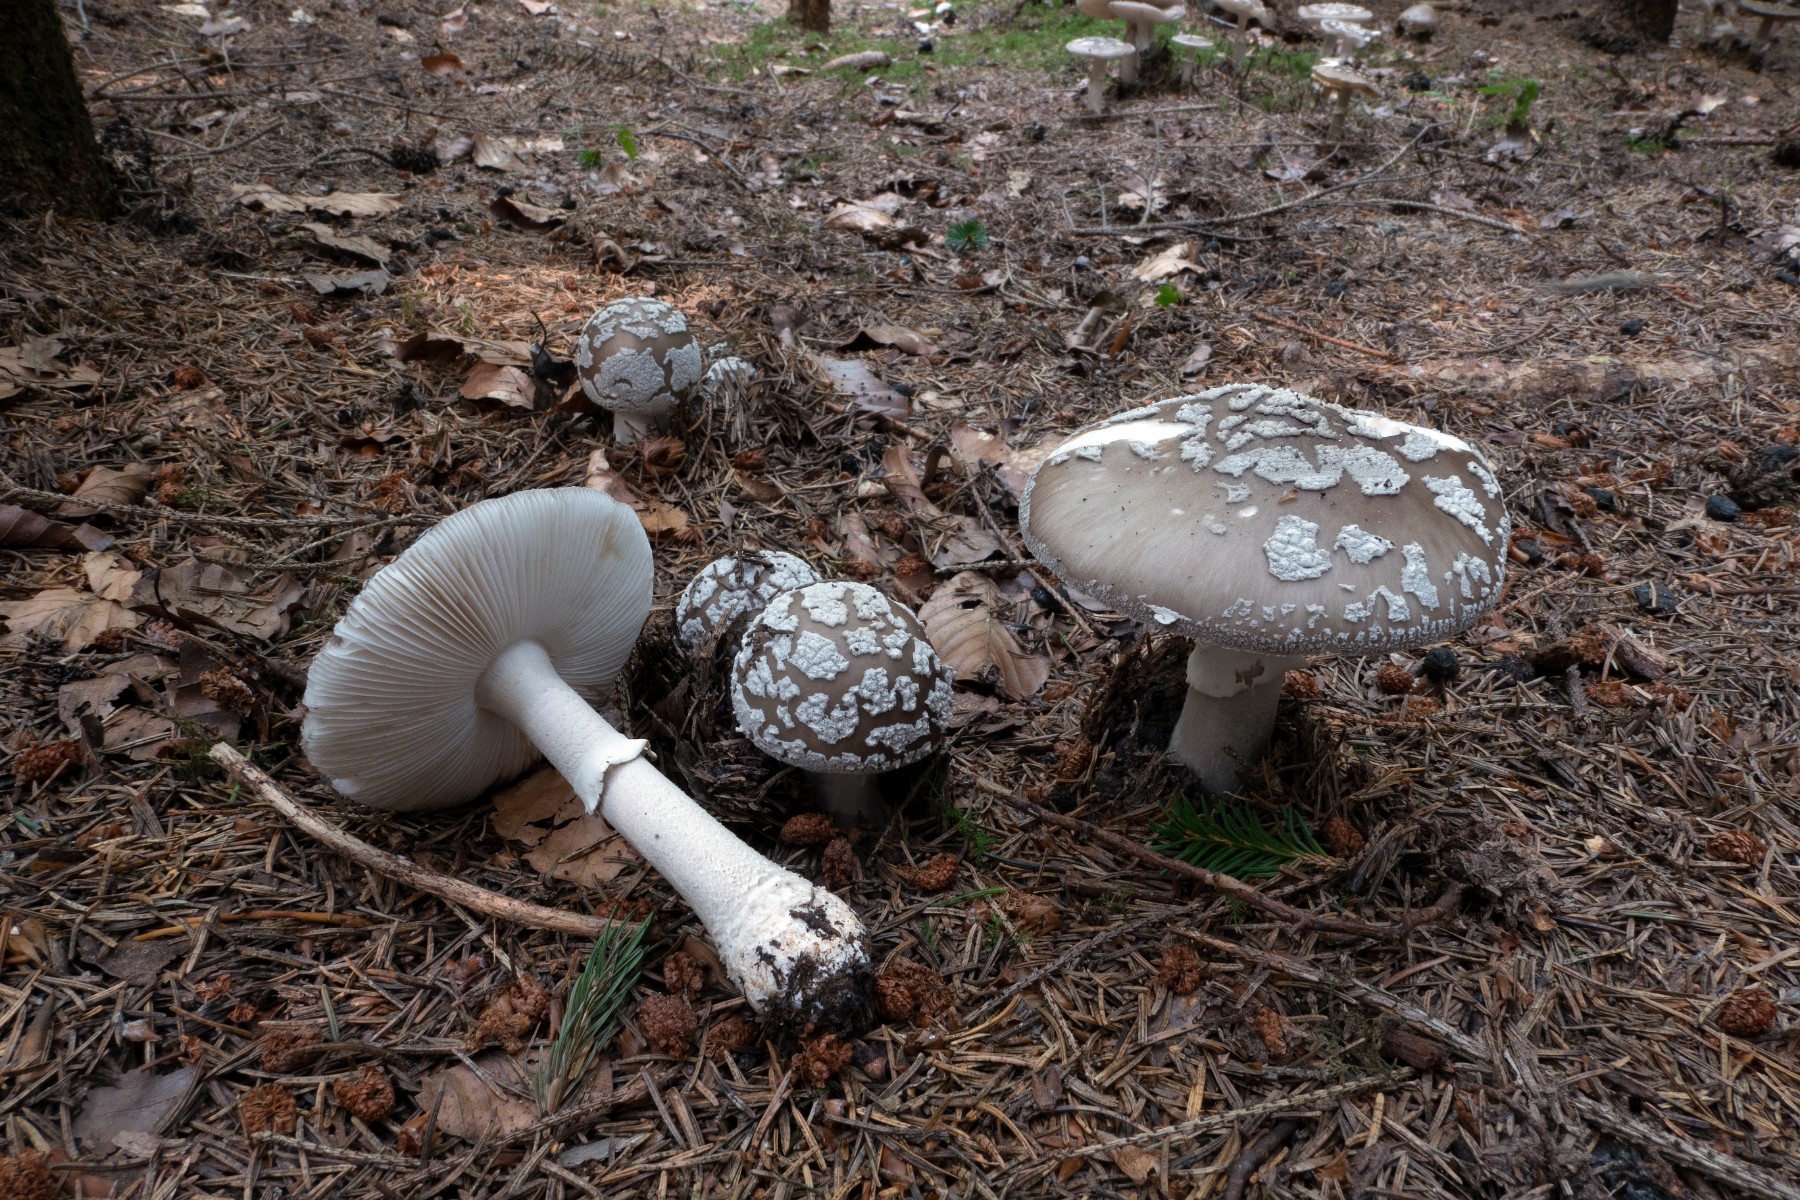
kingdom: Fungi
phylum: Basidiomycota
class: Agaricomycetes
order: Agaricales
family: Amanitaceae
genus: Amanita
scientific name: Amanita
